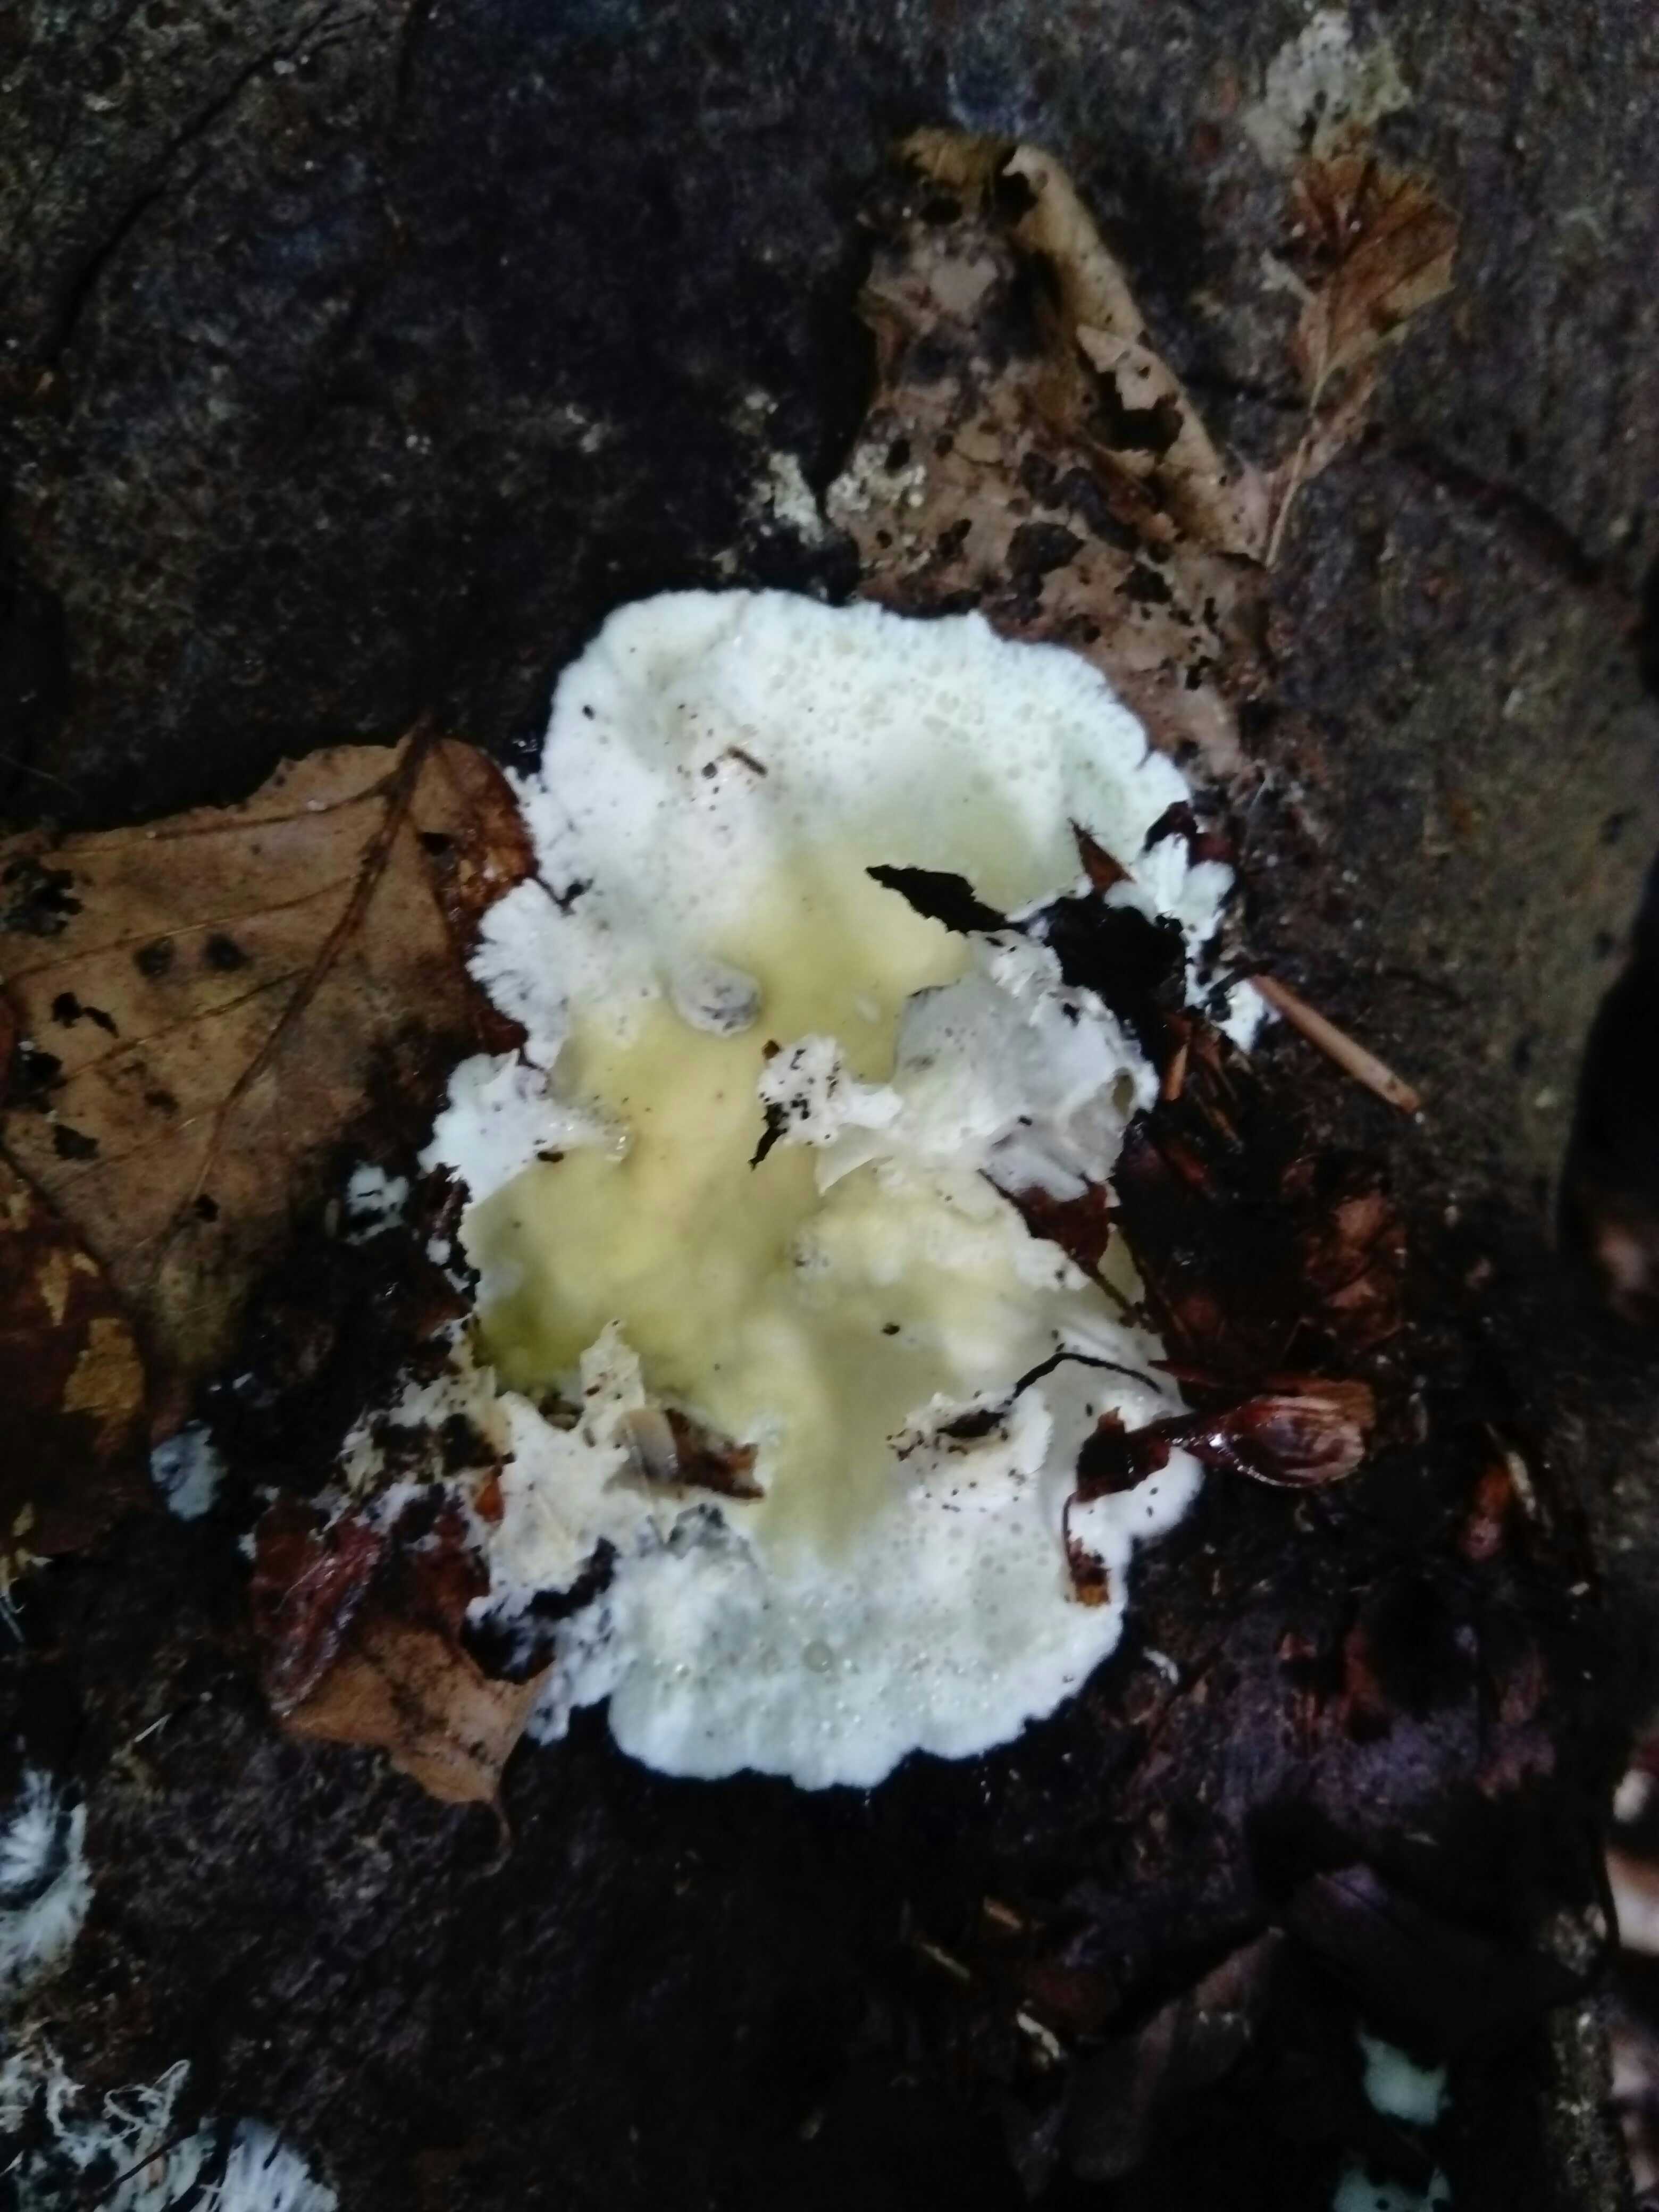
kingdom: Fungi
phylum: Basidiomycota
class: Agaricomycetes
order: Polyporales
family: Irpicaceae
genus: Gloeoporus
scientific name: Gloeoporus pannocinctus
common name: grøngul foldporesvamp
